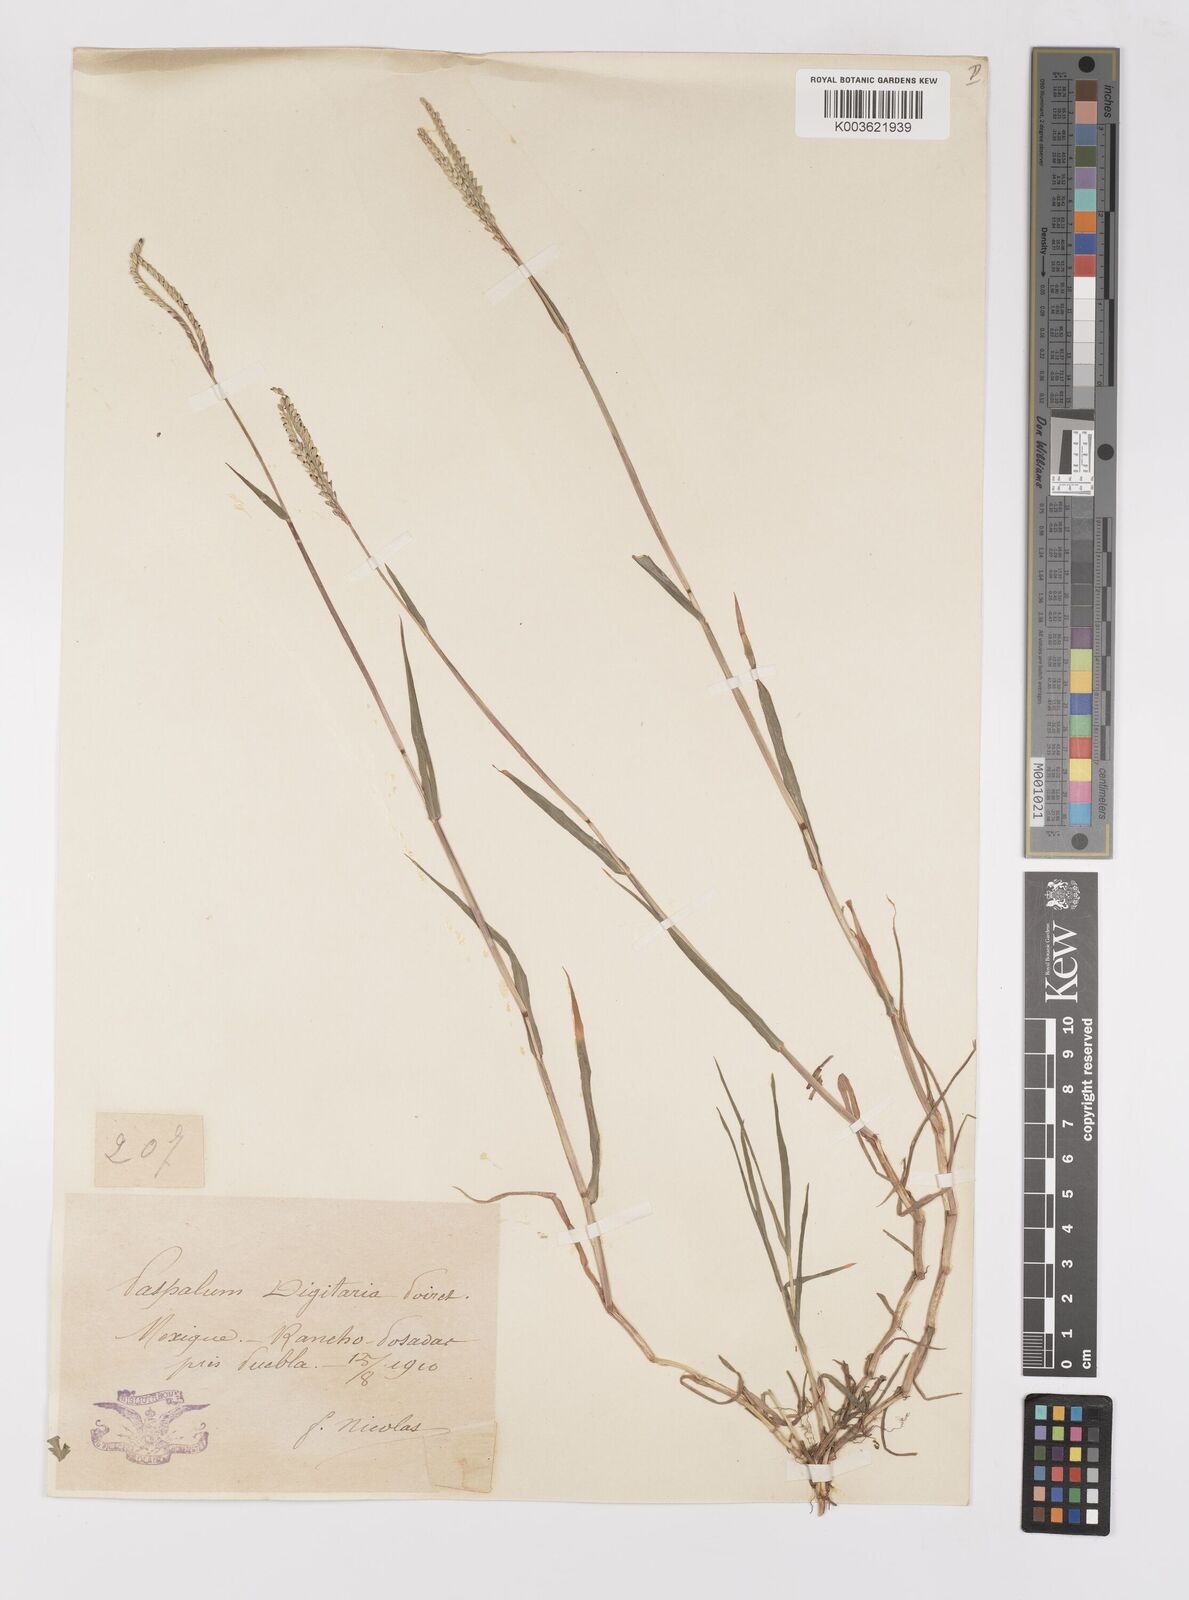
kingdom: Plantae
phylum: Tracheophyta
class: Liliopsida
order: Poales
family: Poaceae
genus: Paspalum
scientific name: Paspalum distichum
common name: Knotgrass
